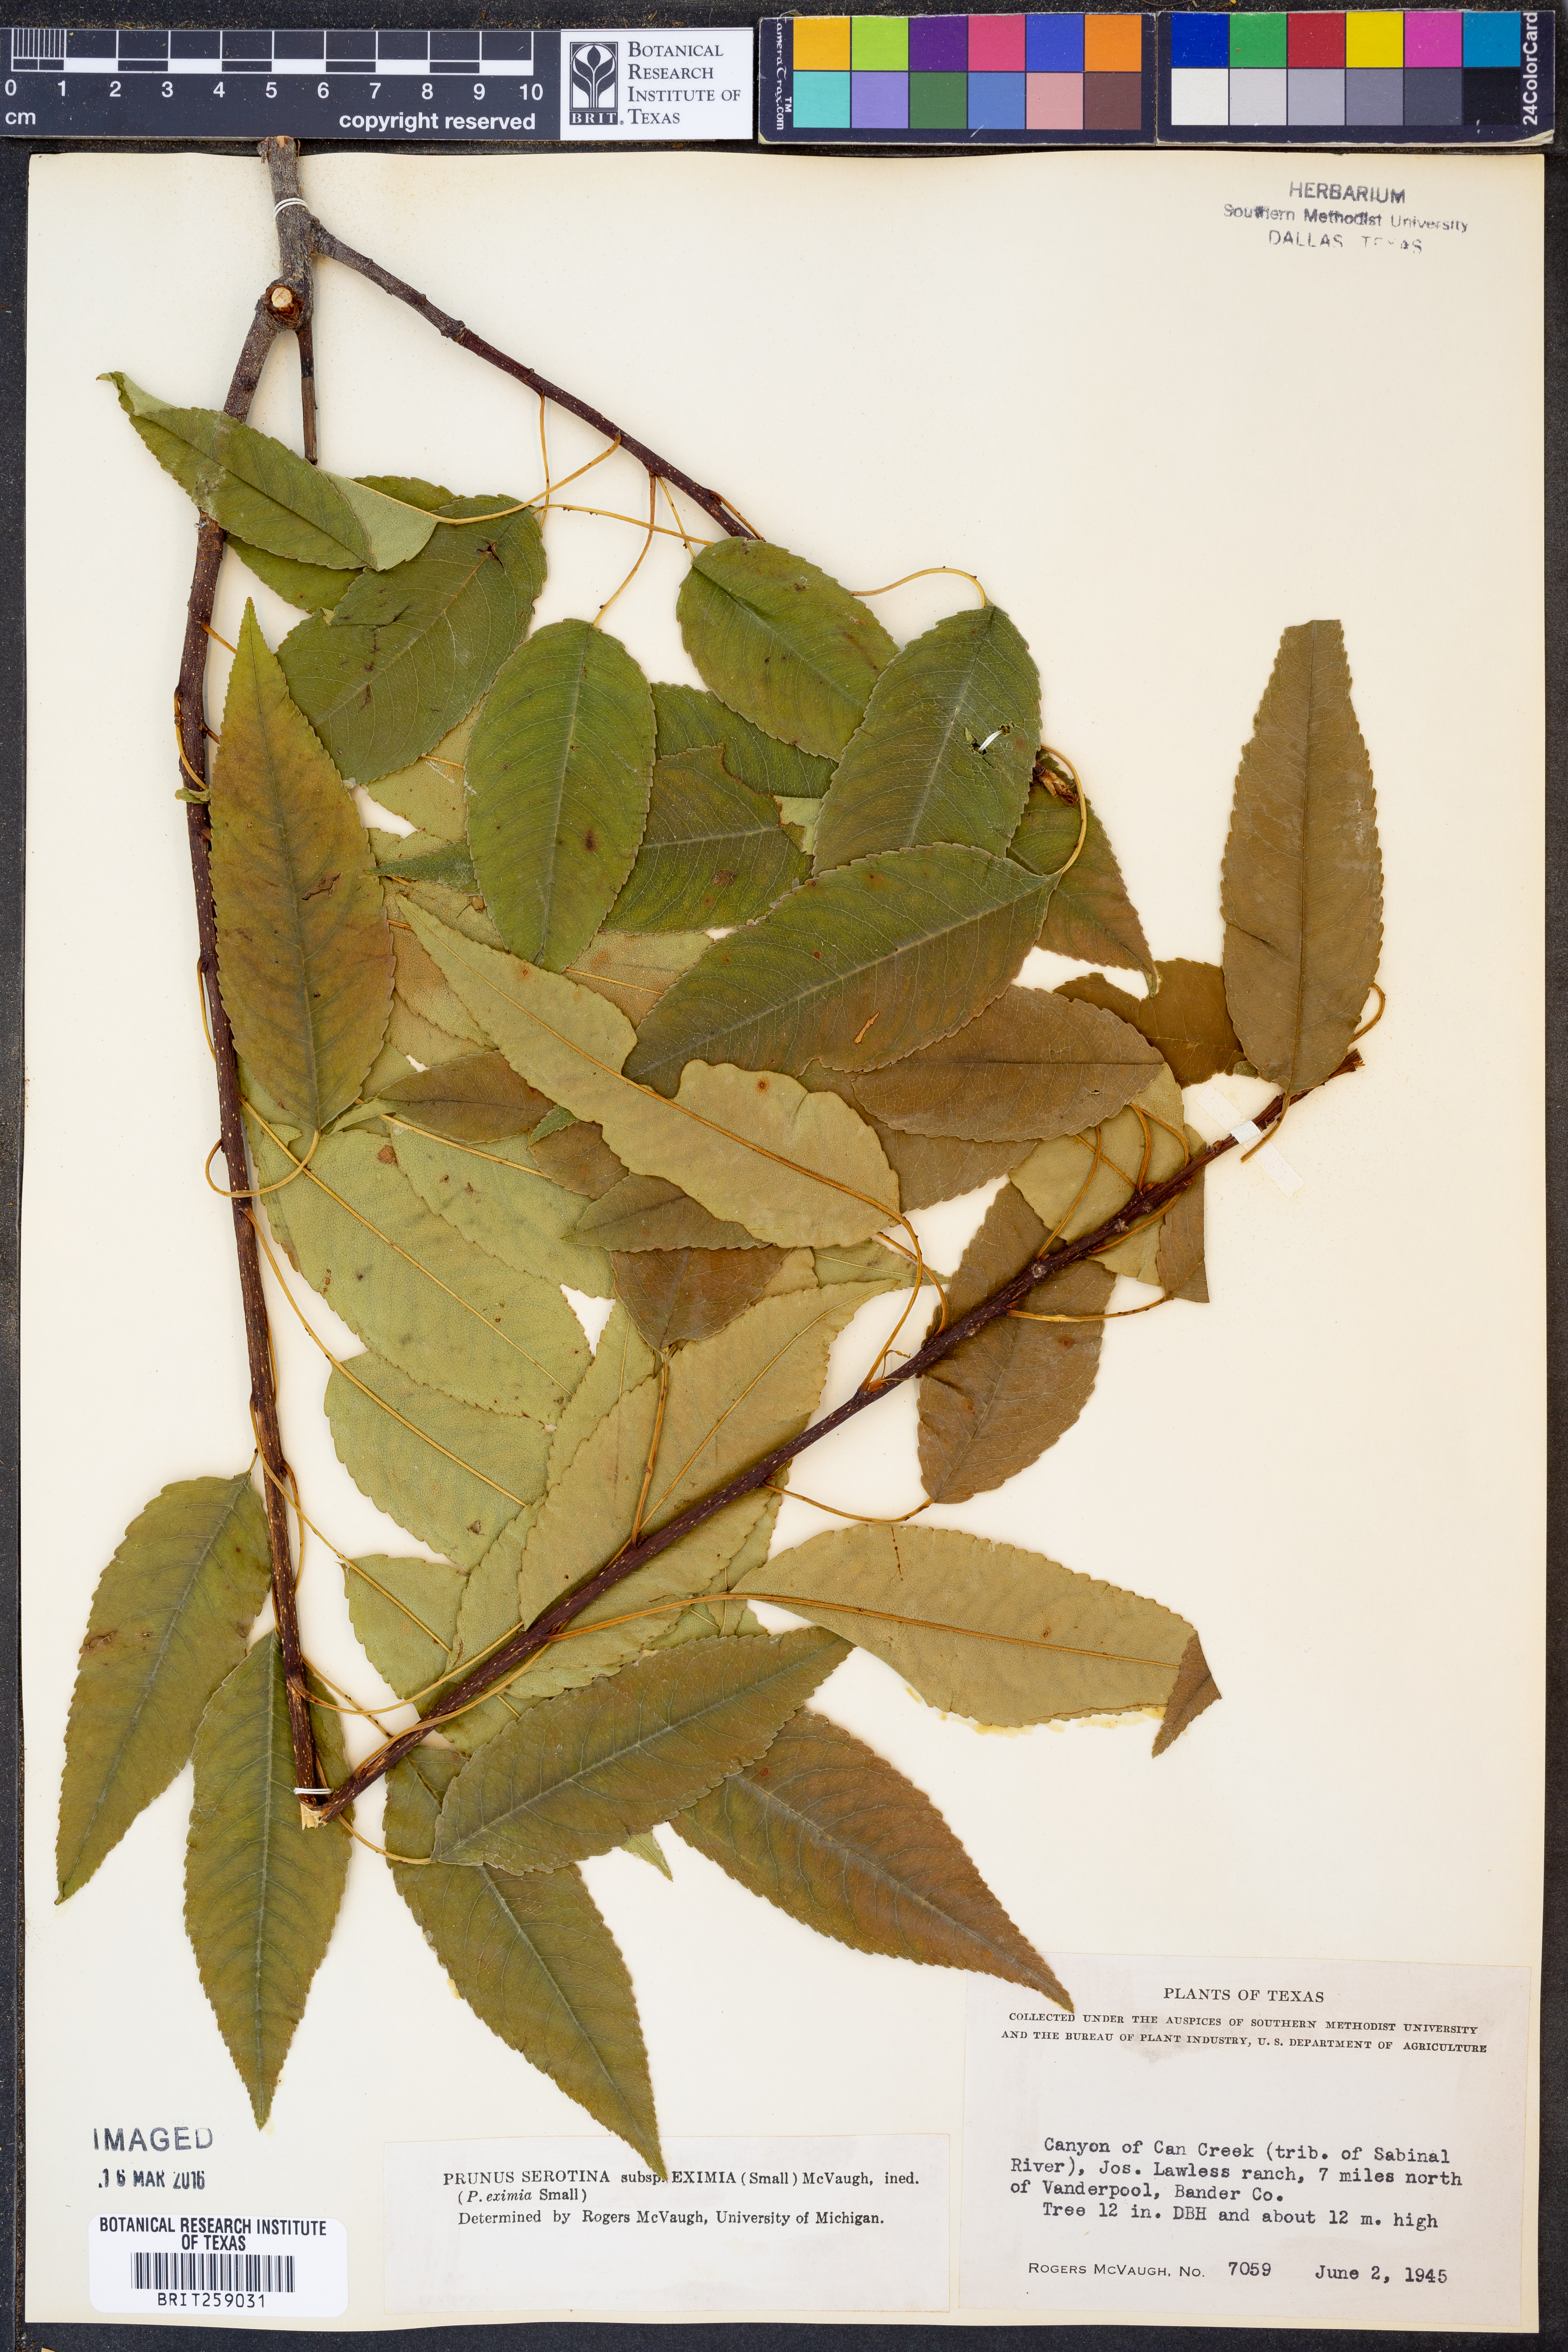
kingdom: Plantae
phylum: Tracheophyta
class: Magnoliopsida
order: Rosales
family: Rosaceae
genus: Prunus
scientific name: Prunus serotina
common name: Black cherry
